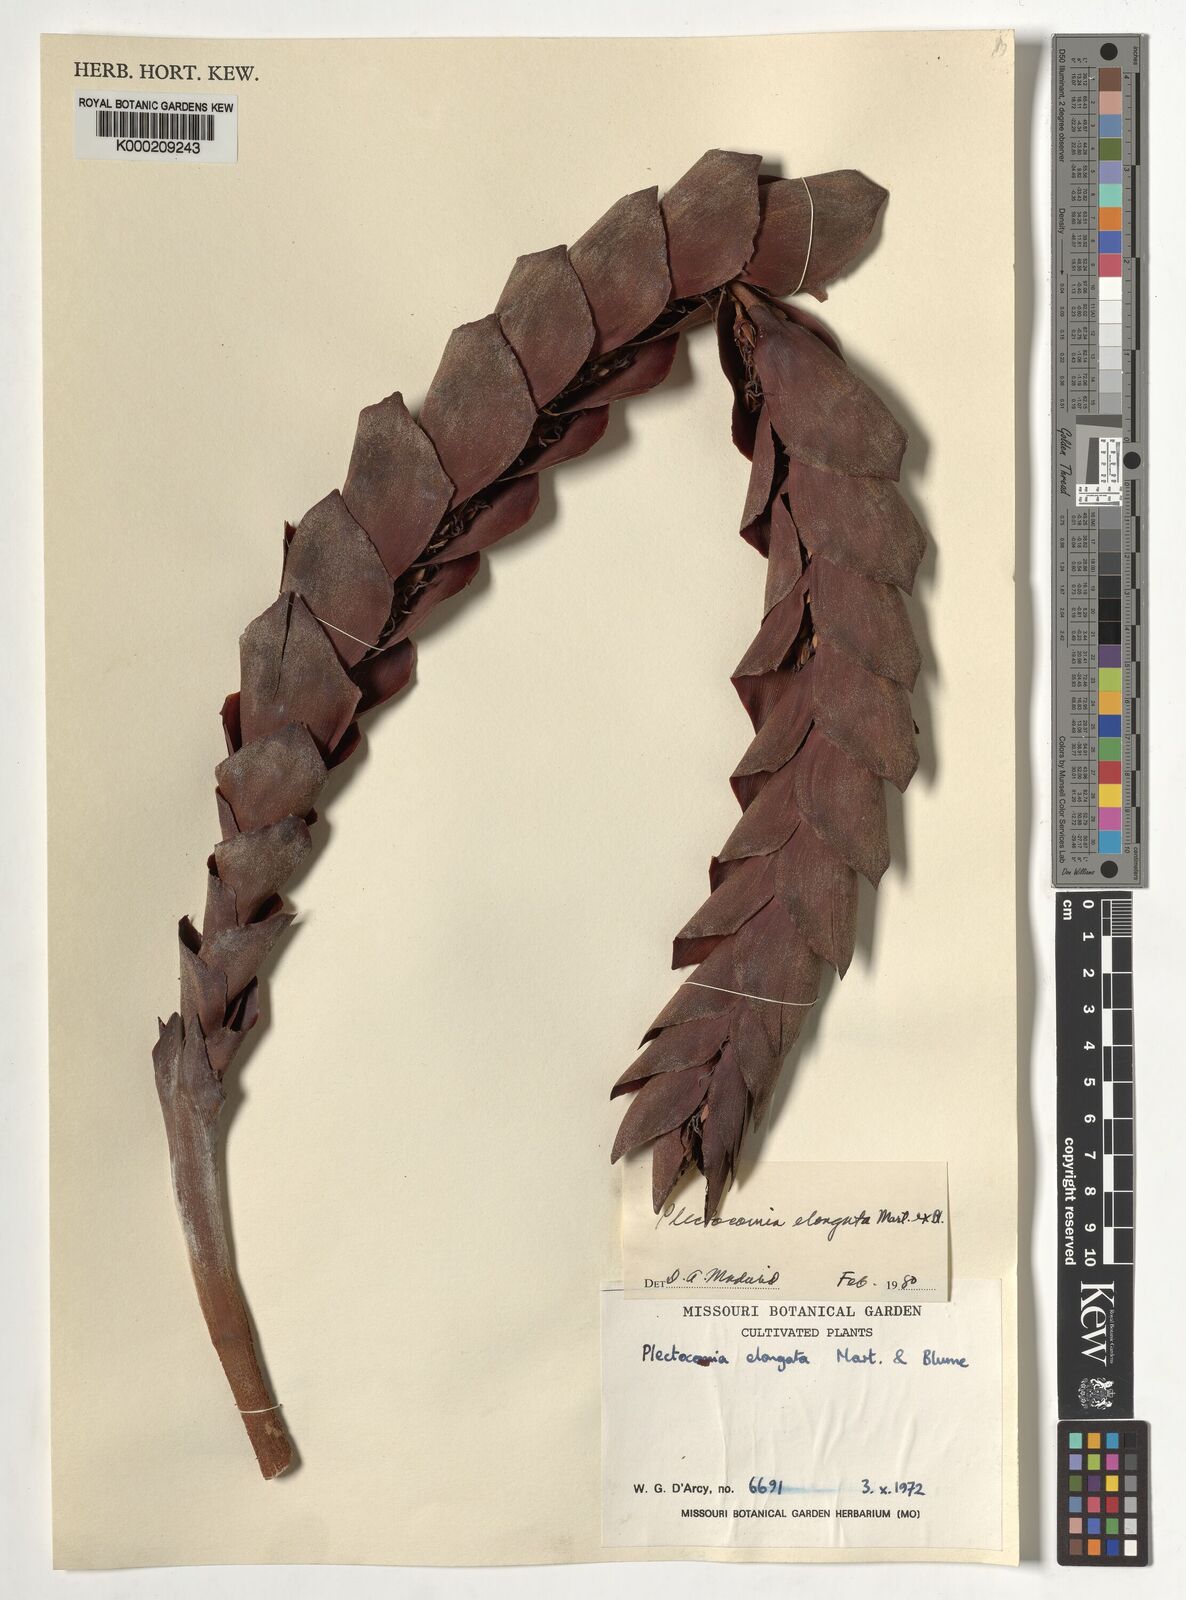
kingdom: Plantae
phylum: Tracheophyta
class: Liliopsida
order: Arecales
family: Arecaceae
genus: Plectocomia
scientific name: Plectocomia elongata
